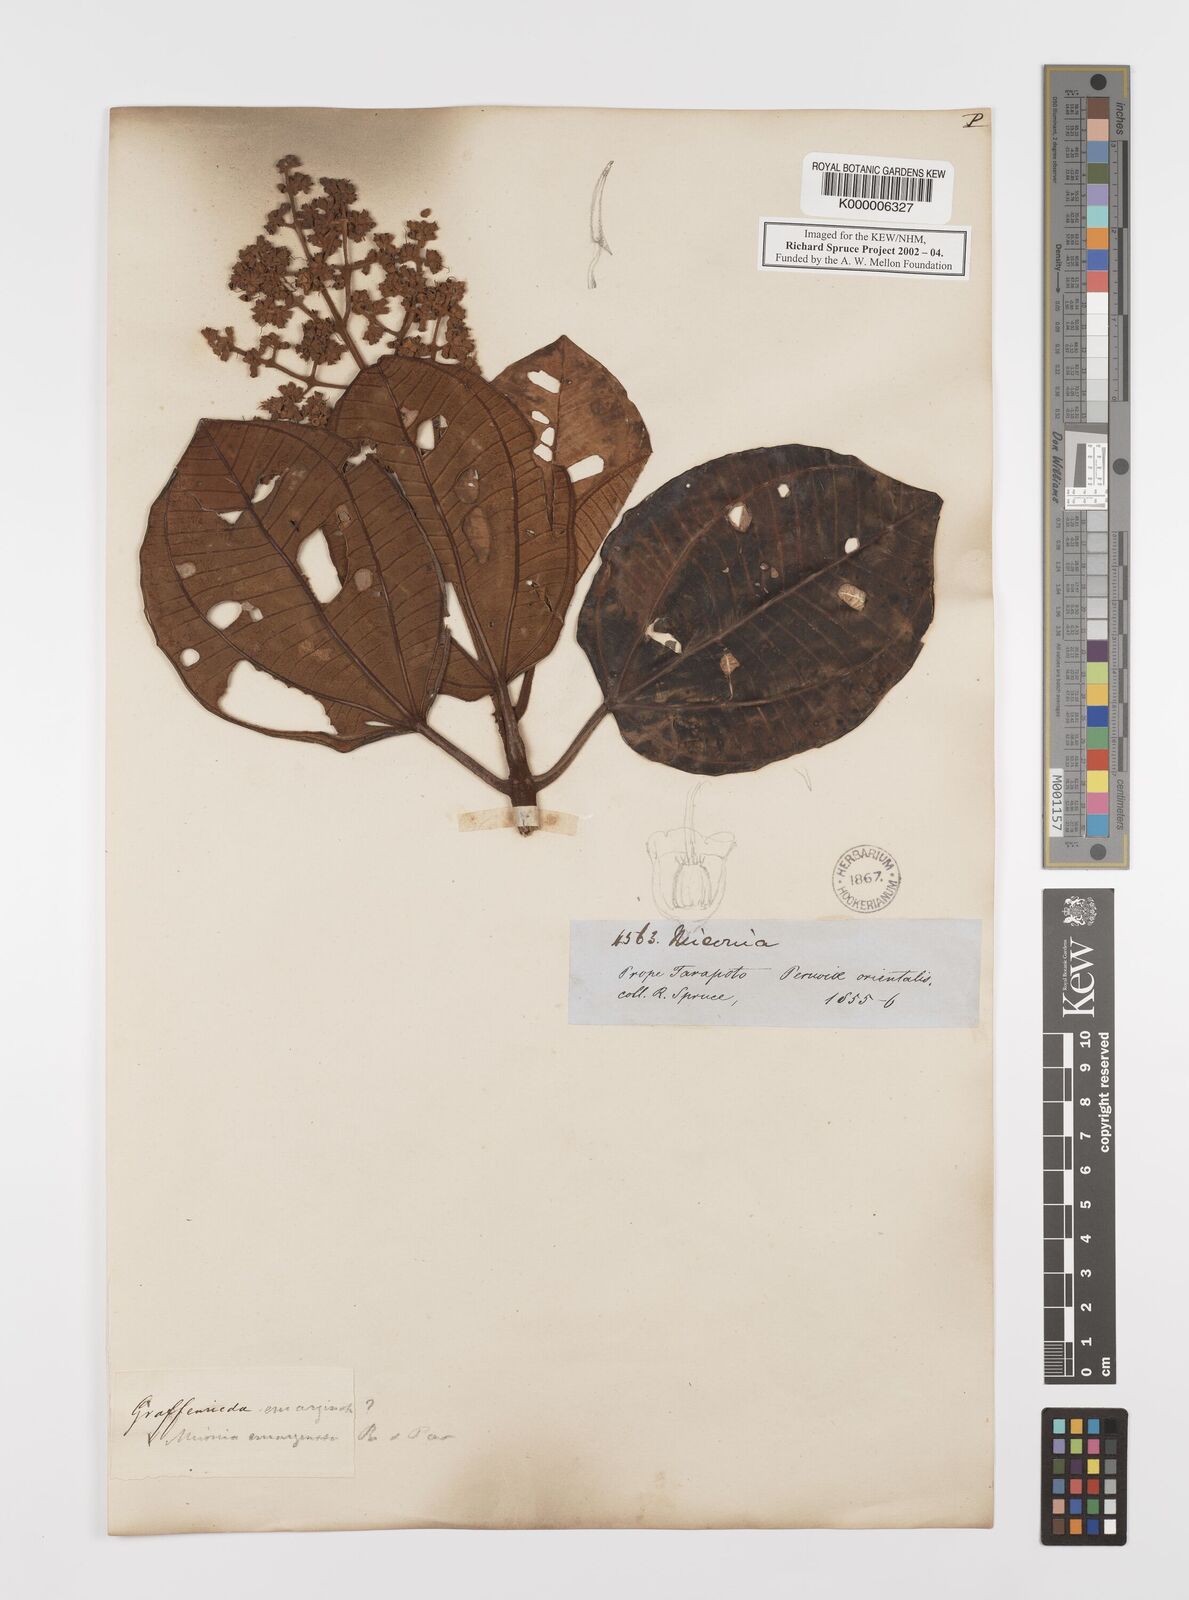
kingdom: Plantae
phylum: Tracheophyta
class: Magnoliopsida
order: Myrtales
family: Melastomataceae
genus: Graffenrieda
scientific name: Graffenrieda emarginata
